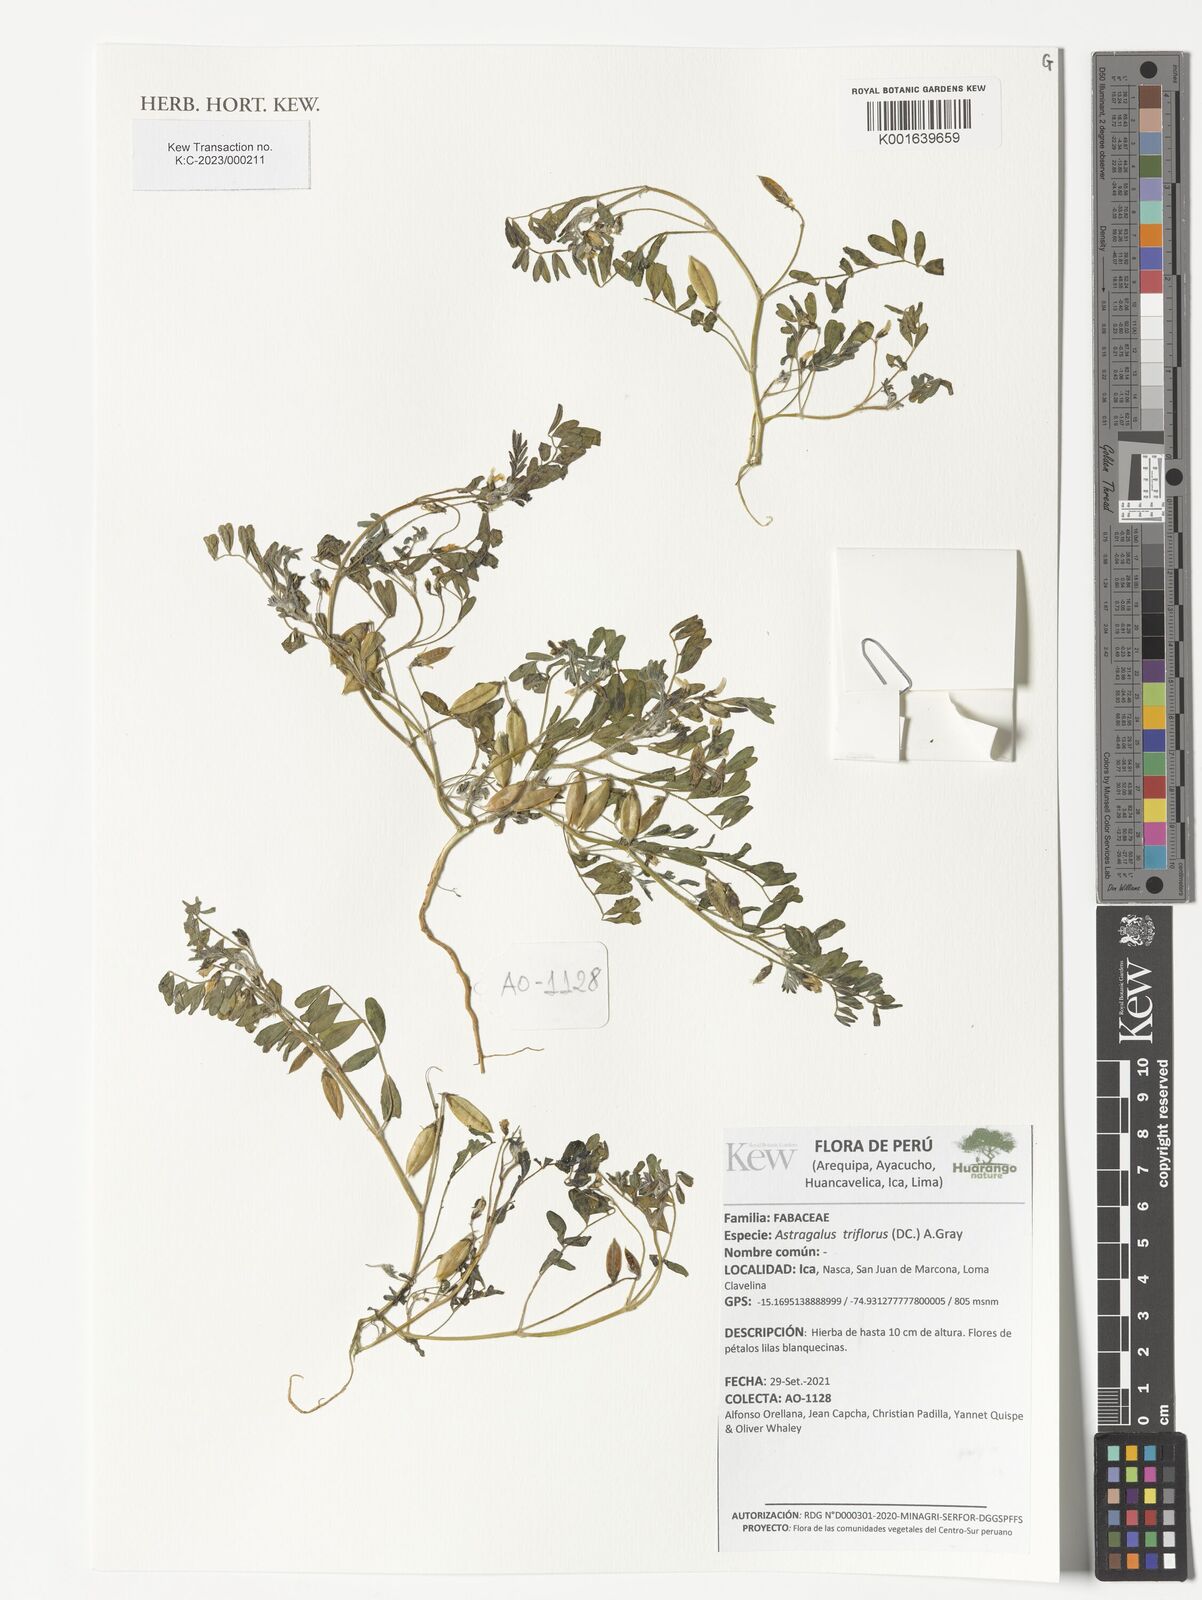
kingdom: Plantae
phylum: Tracheophyta
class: Magnoliopsida
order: Fabales
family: Fabaceae
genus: Astragalus
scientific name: Astragalus triflorus
